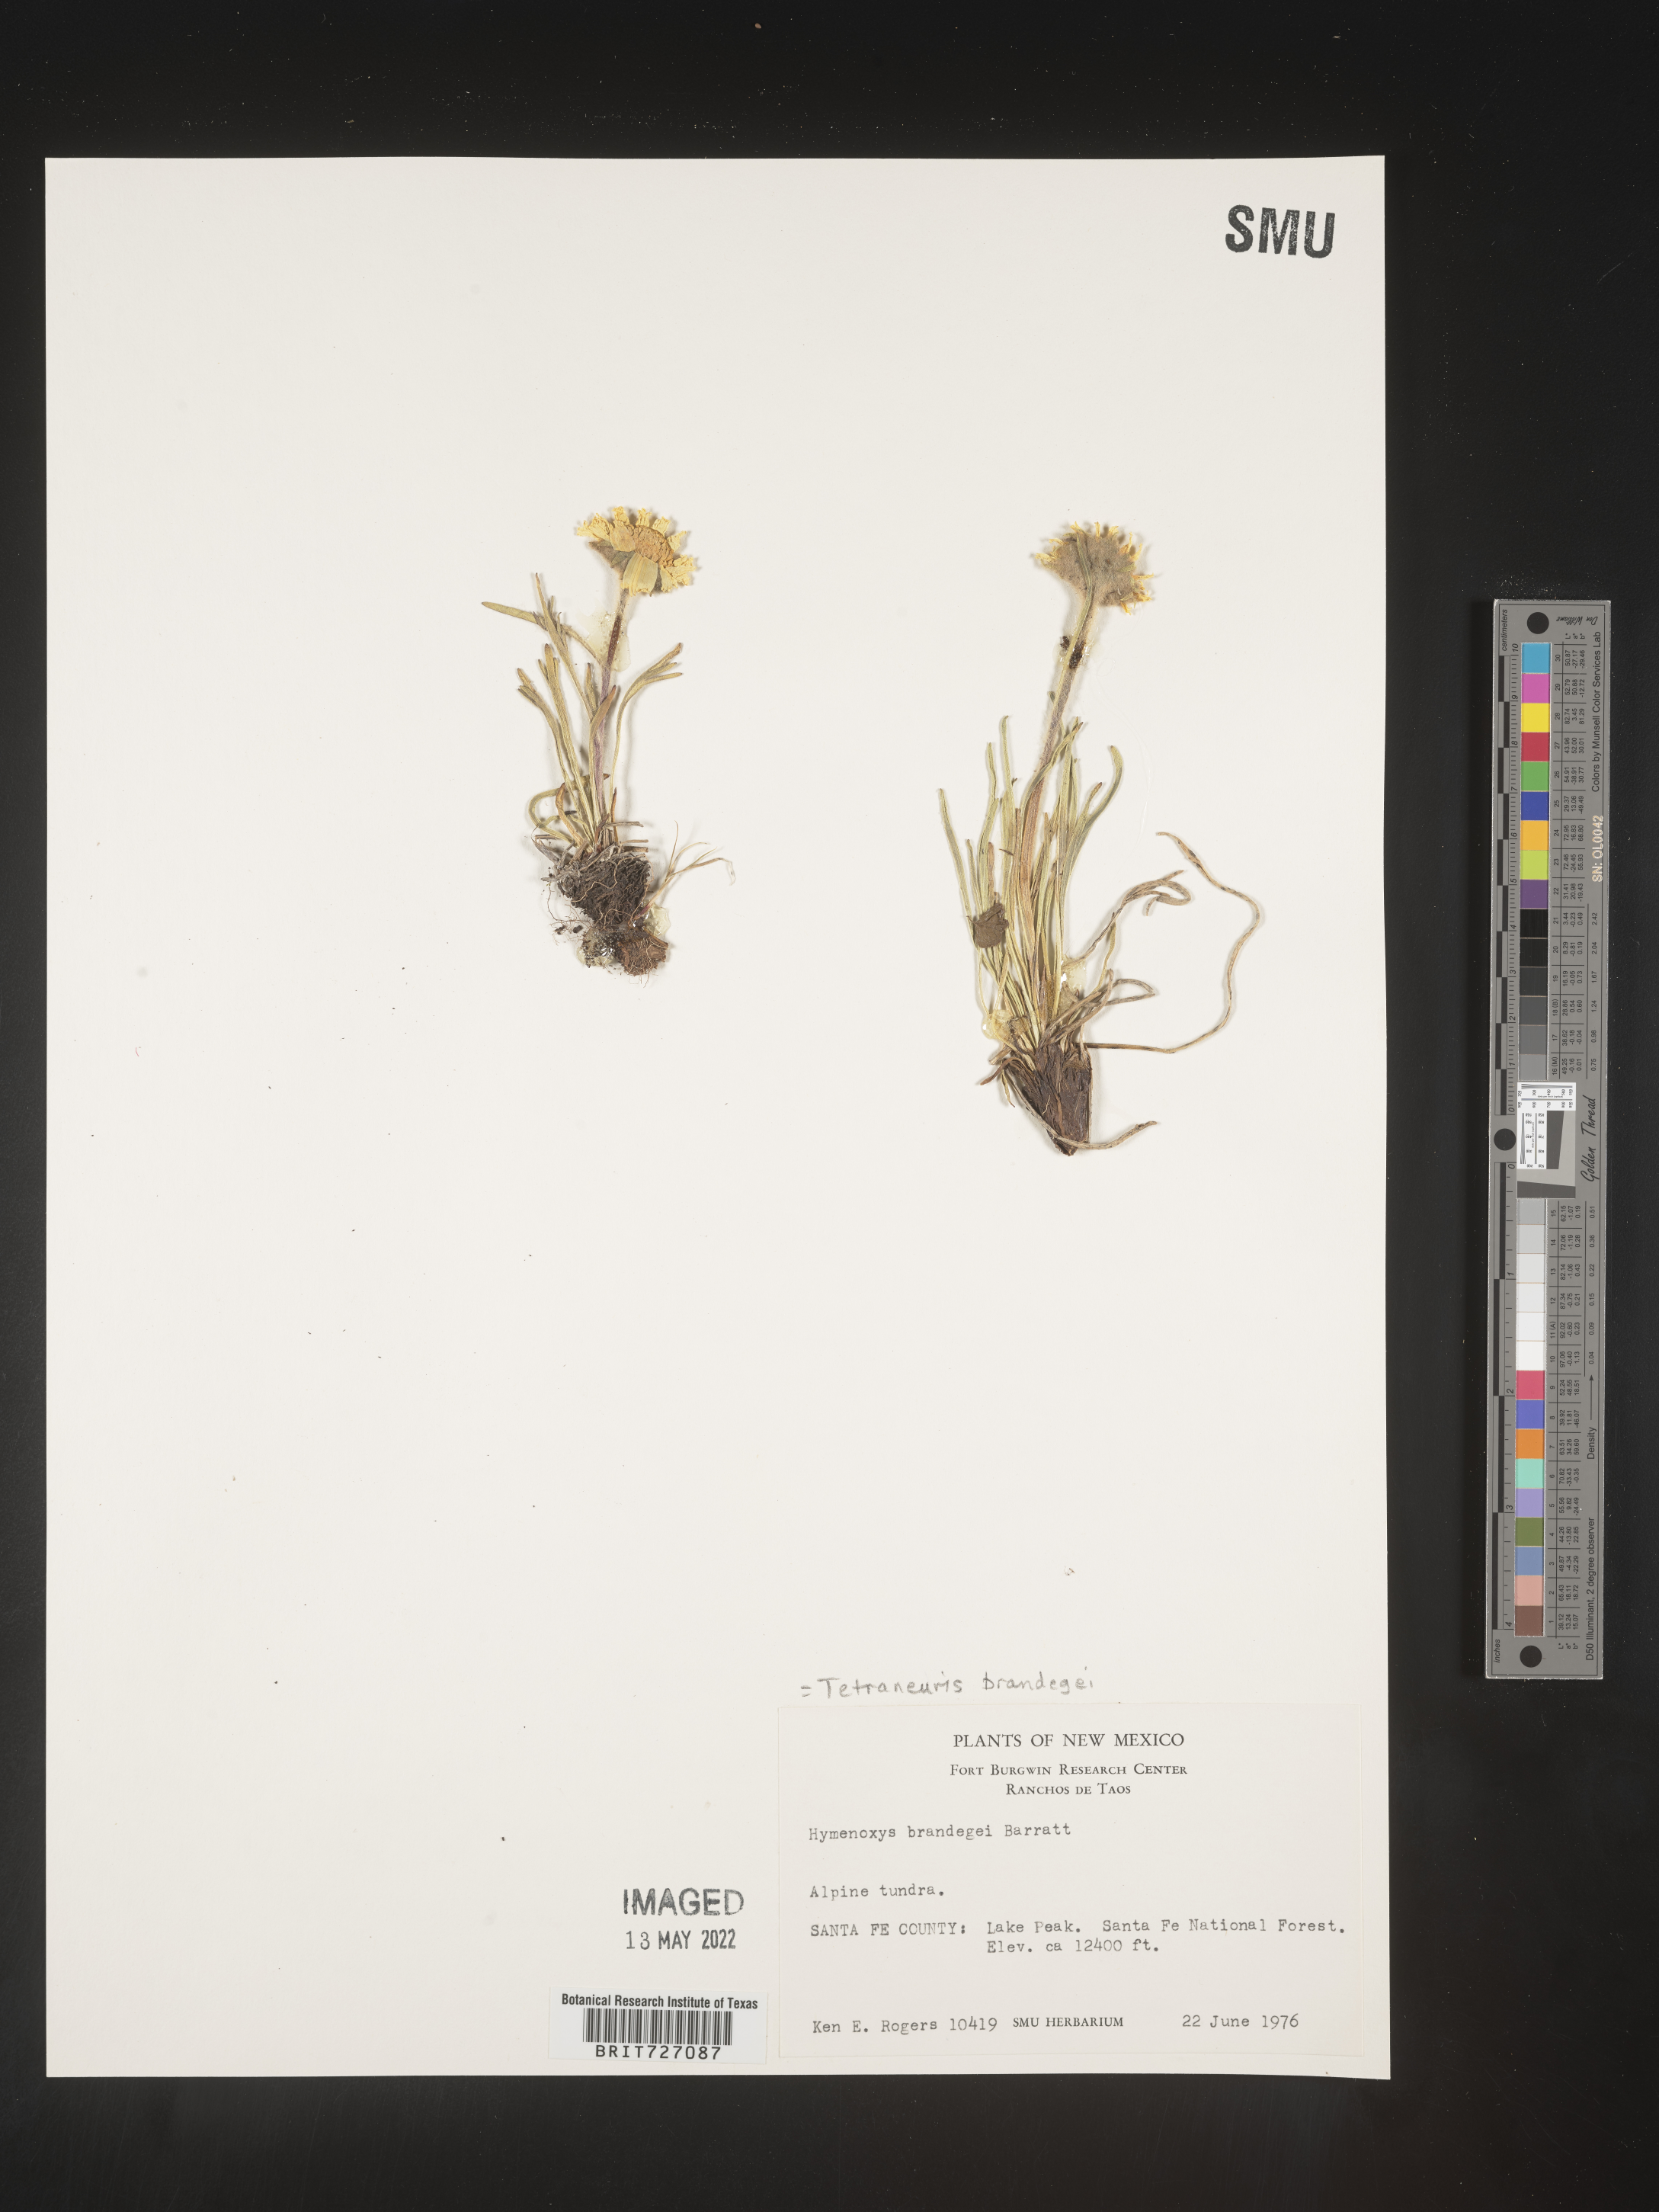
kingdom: Plantae
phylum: Tracheophyta
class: Magnoliopsida
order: Asterales
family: Asteraceae
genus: Hymenoxys
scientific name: Hymenoxys brandegeei
